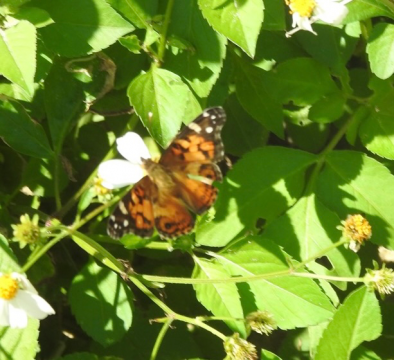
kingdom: Animalia
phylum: Arthropoda
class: Insecta
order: Lepidoptera
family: Nymphalidae
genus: Vanessa
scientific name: Vanessa virginiensis
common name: American Lady
